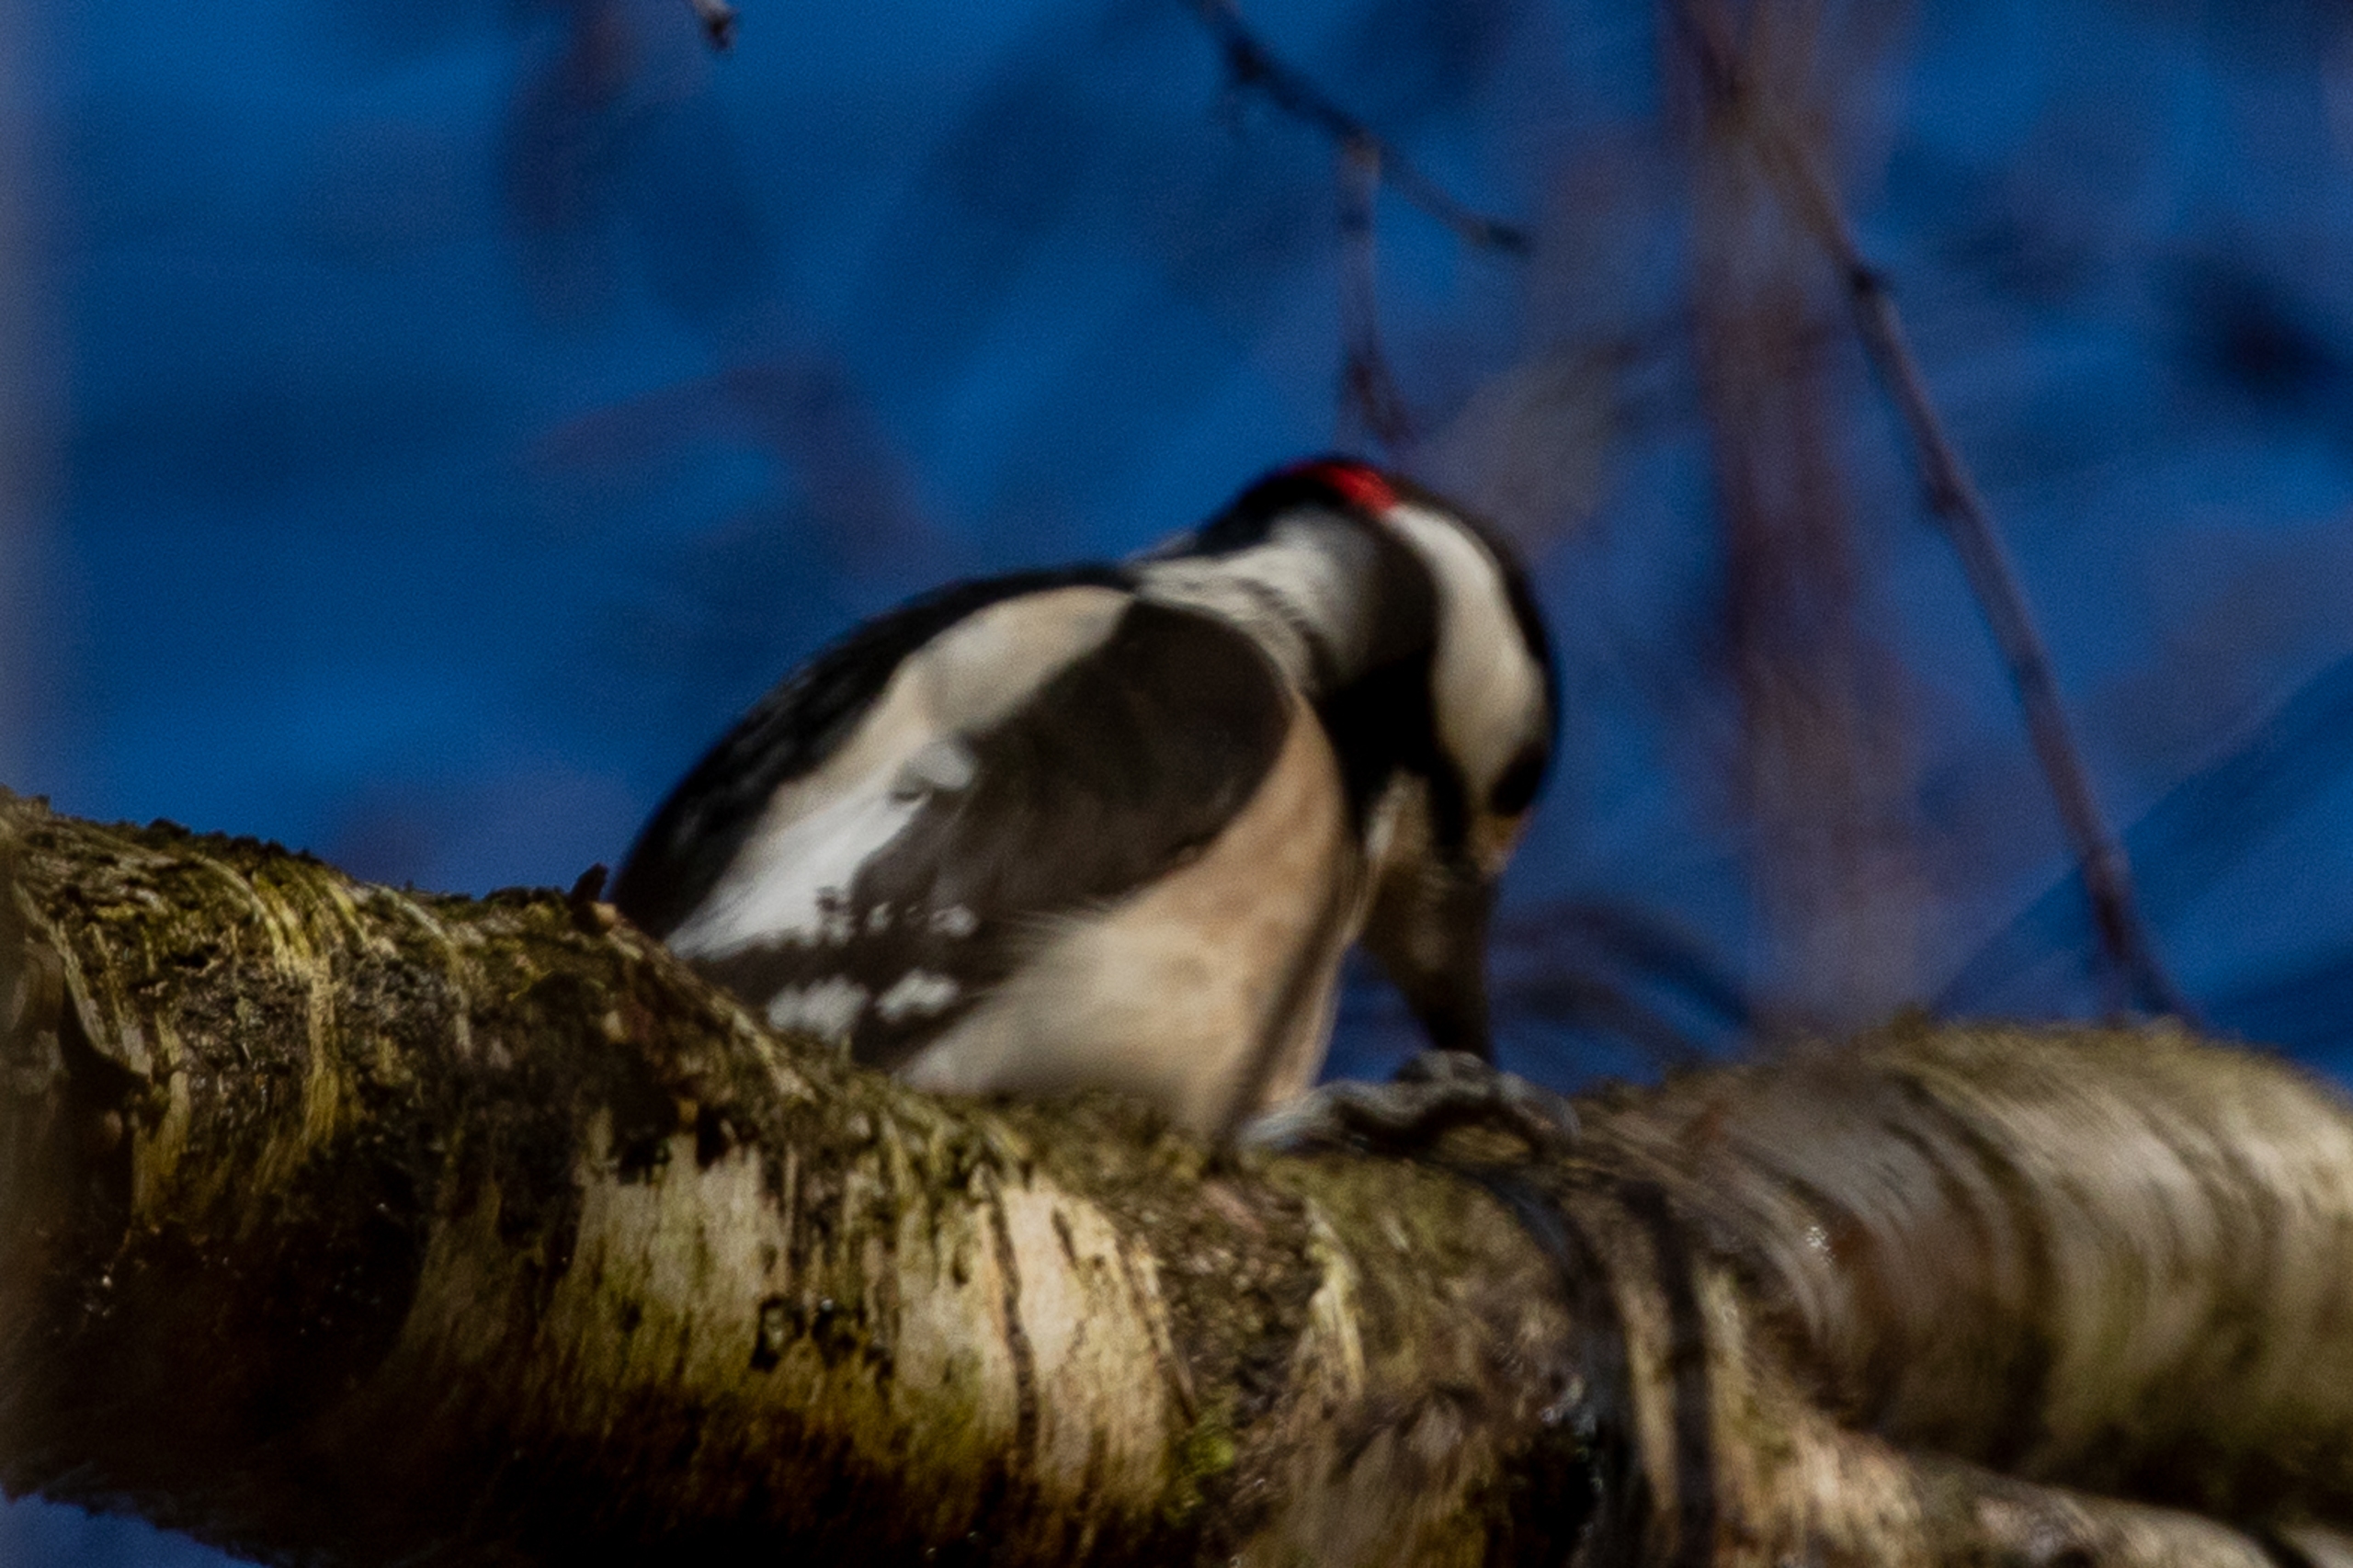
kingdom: Animalia
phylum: Chordata
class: Aves
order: Piciformes
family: Picidae
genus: Dendrocopos
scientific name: Dendrocopos major
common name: Stor flagspætte
